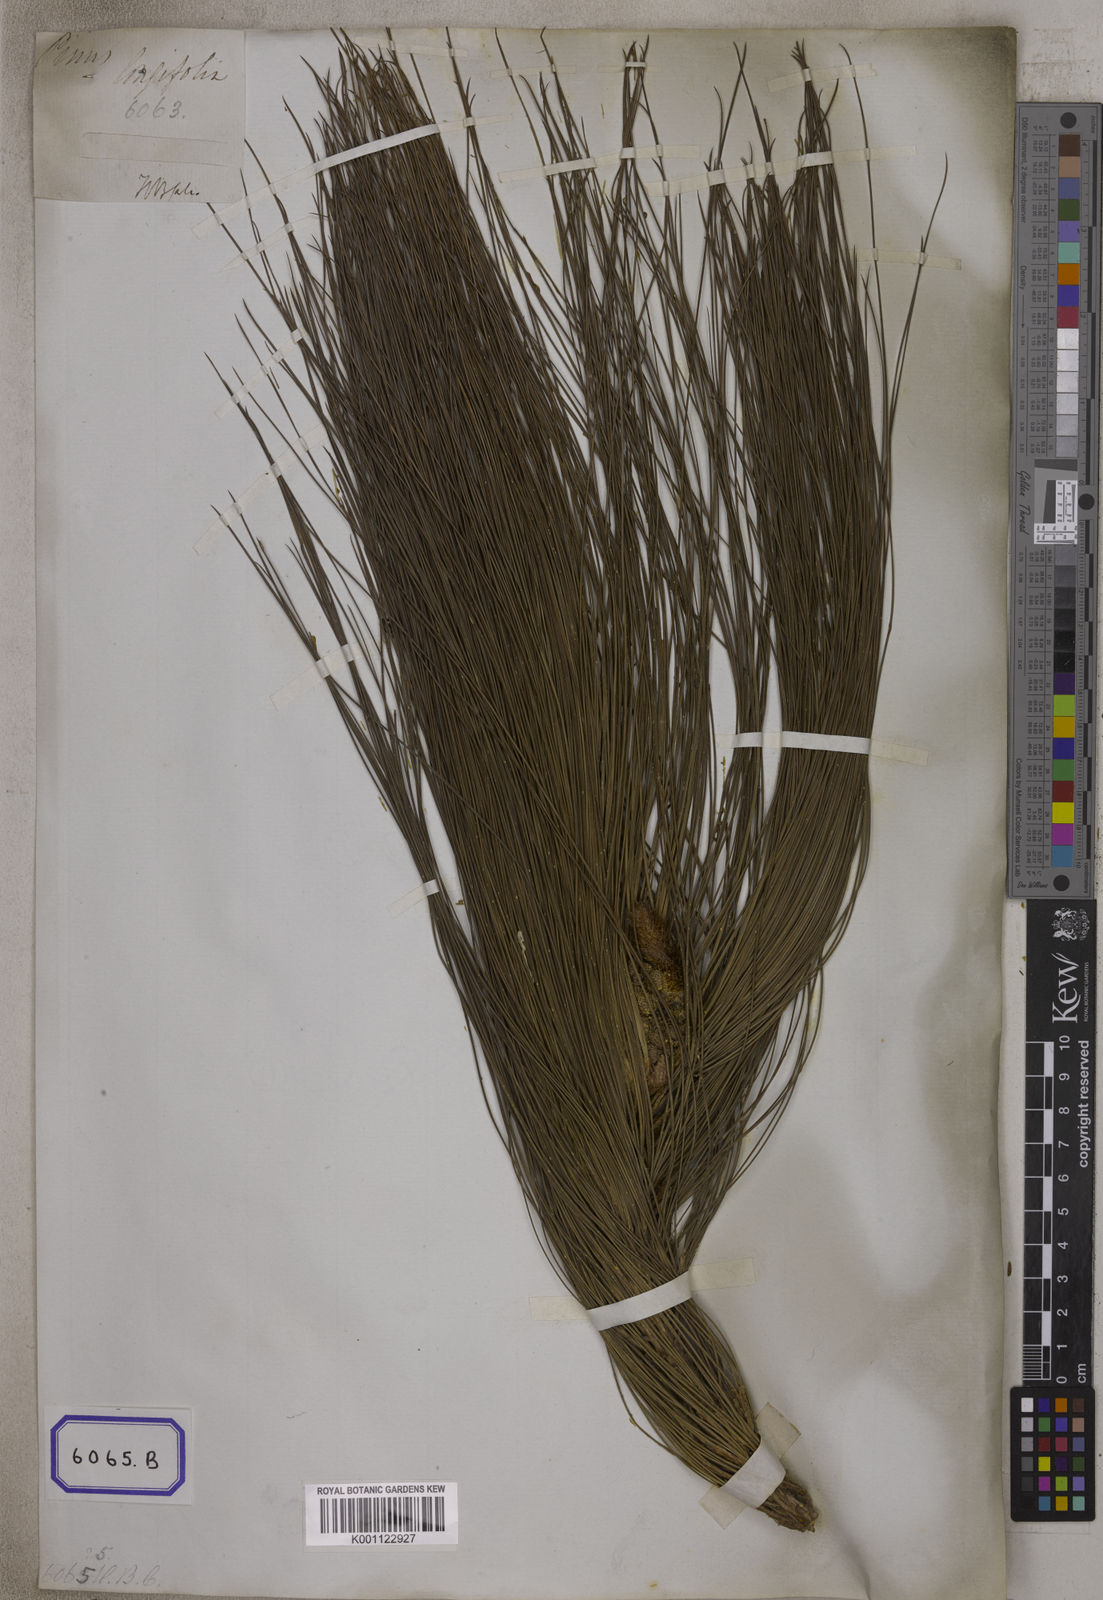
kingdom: Plantae
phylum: Tracheophyta
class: Pinopsida
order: Pinales
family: Pinaceae
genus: Pinus
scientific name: Pinus
